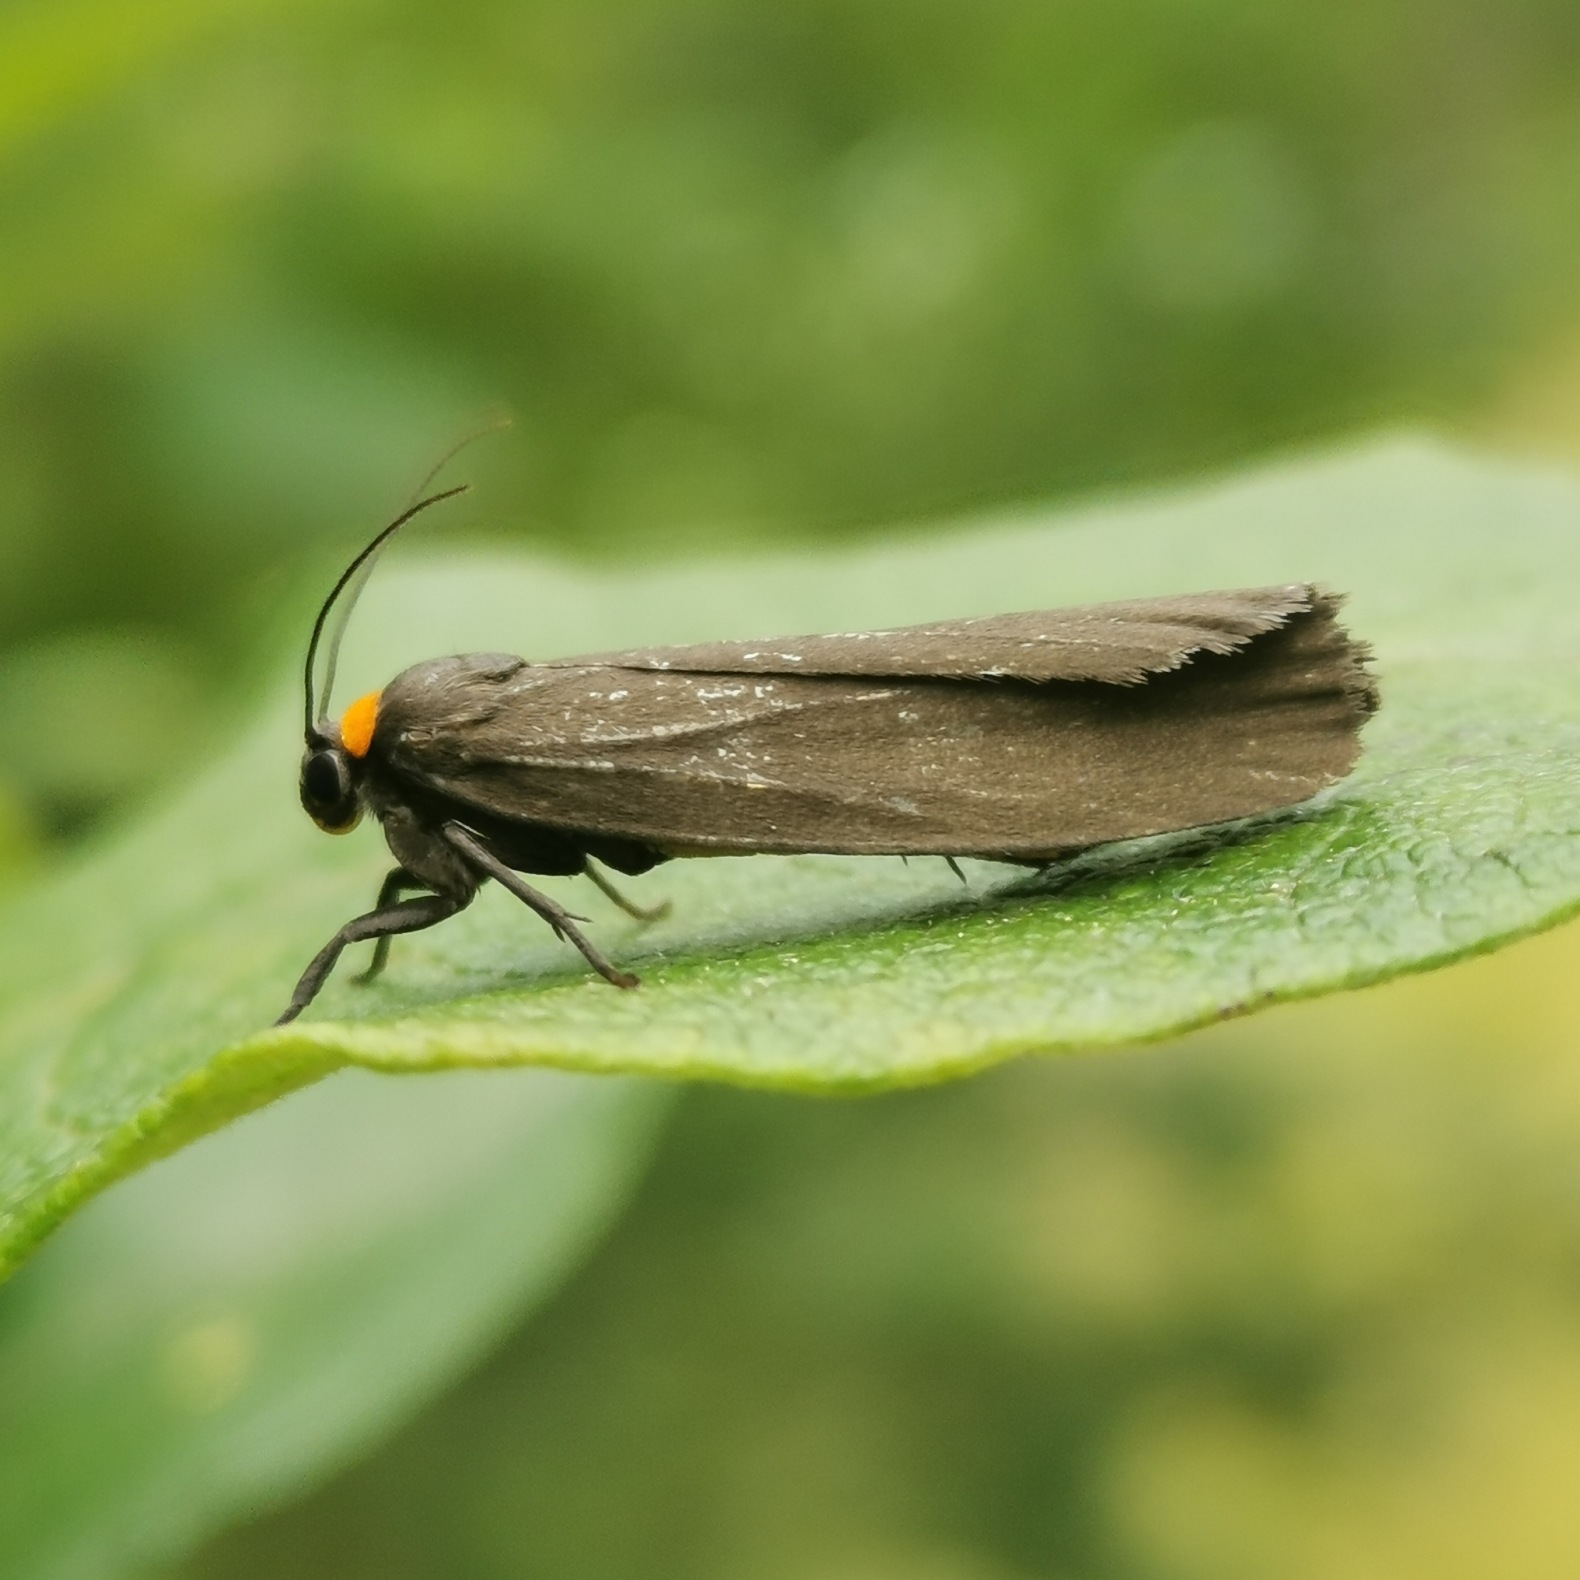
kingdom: Animalia
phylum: Arthropoda
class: Insecta
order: Lepidoptera
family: Erebidae
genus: Atolmis
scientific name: Atolmis rubricollis
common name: Blodnakke
